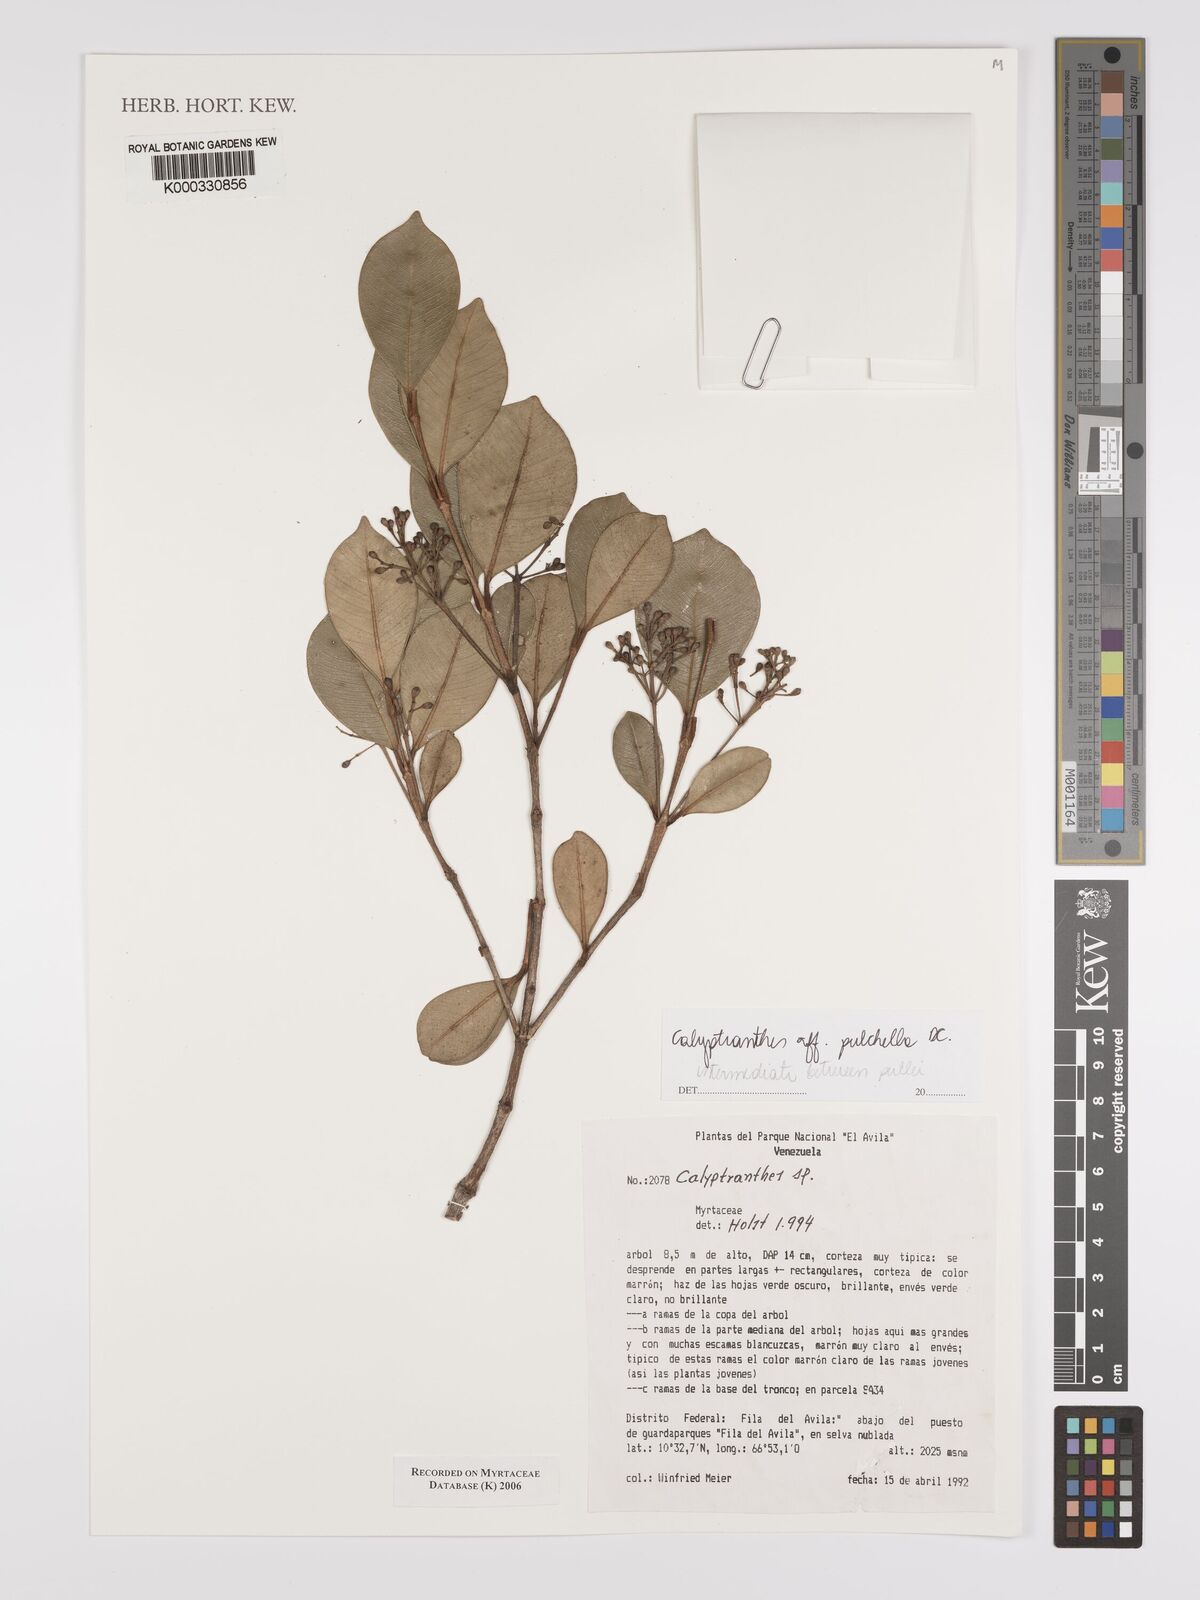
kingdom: Plantae
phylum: Tracheophyta
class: Magnoliopsida
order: Myrtales
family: Myrtaceae
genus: Calyptranthes
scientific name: Calyptranthes
